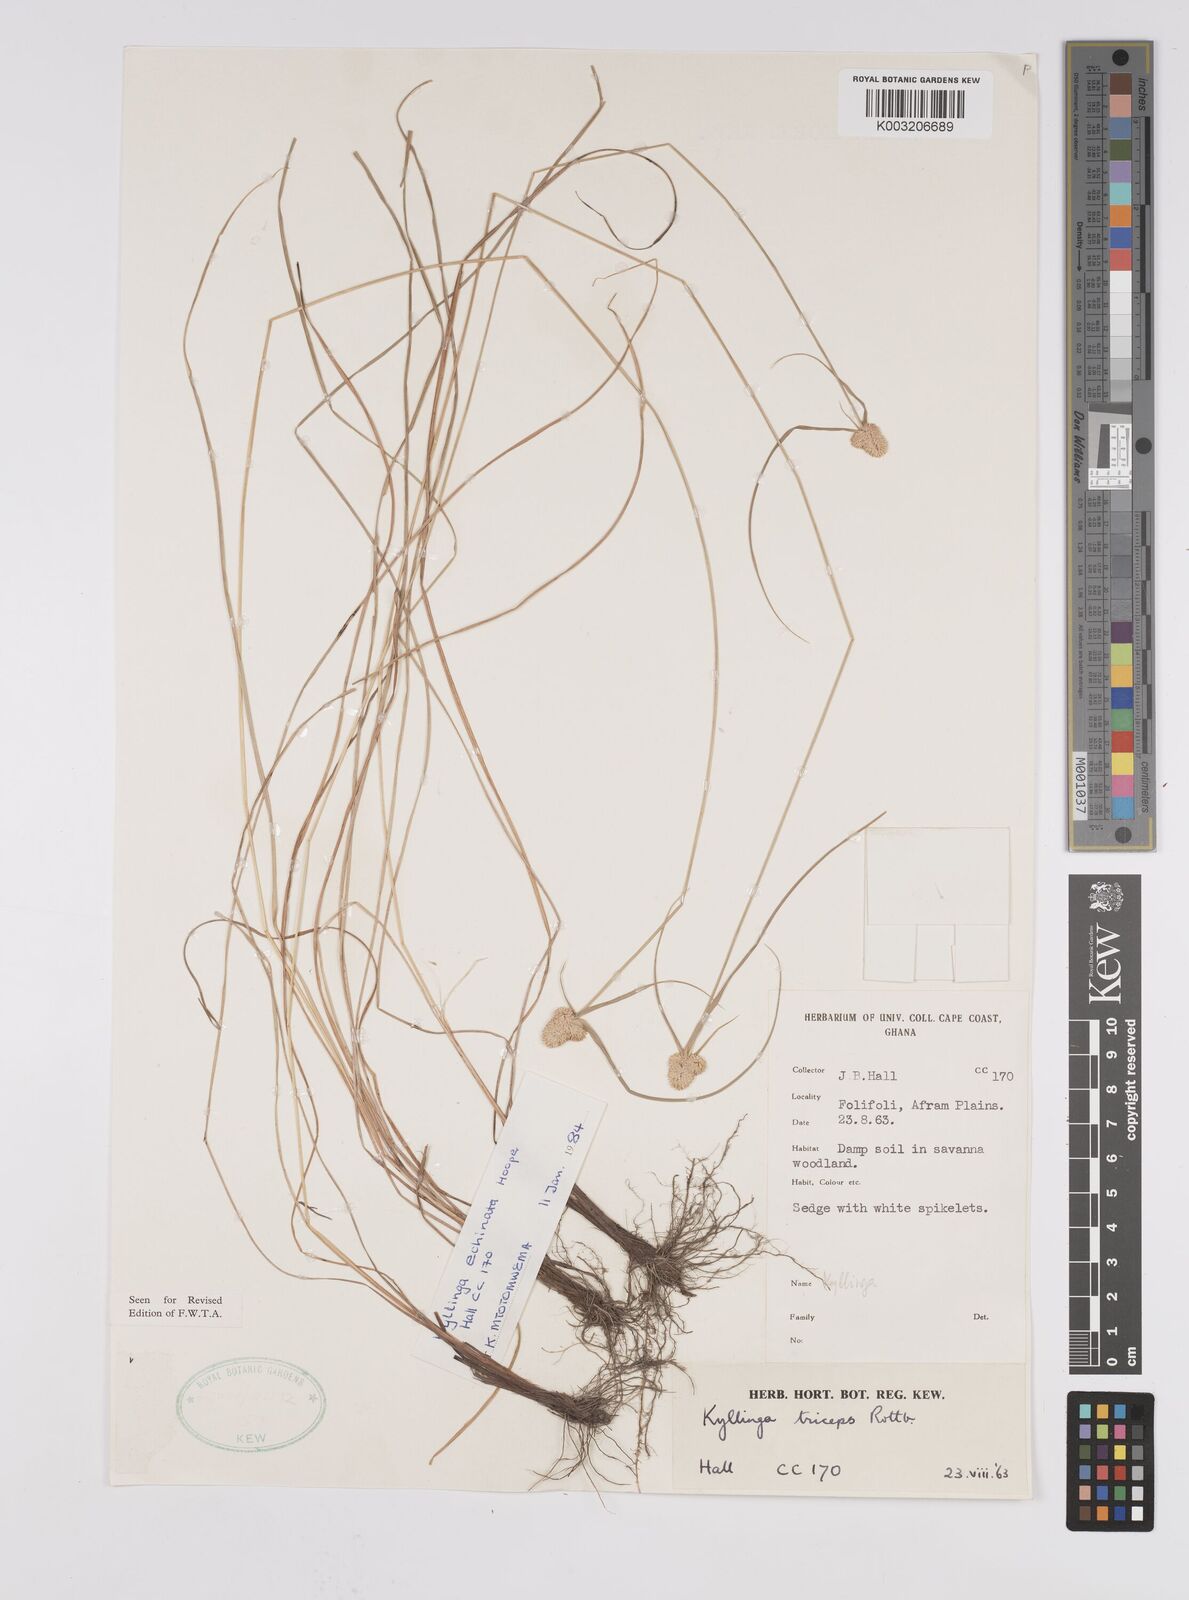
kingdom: Plantae
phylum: Tracheophyta
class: Liliopsida
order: Poales
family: Cyperaceae
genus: Cyperus
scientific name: Cyperus echinatus
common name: Teasel sedge
